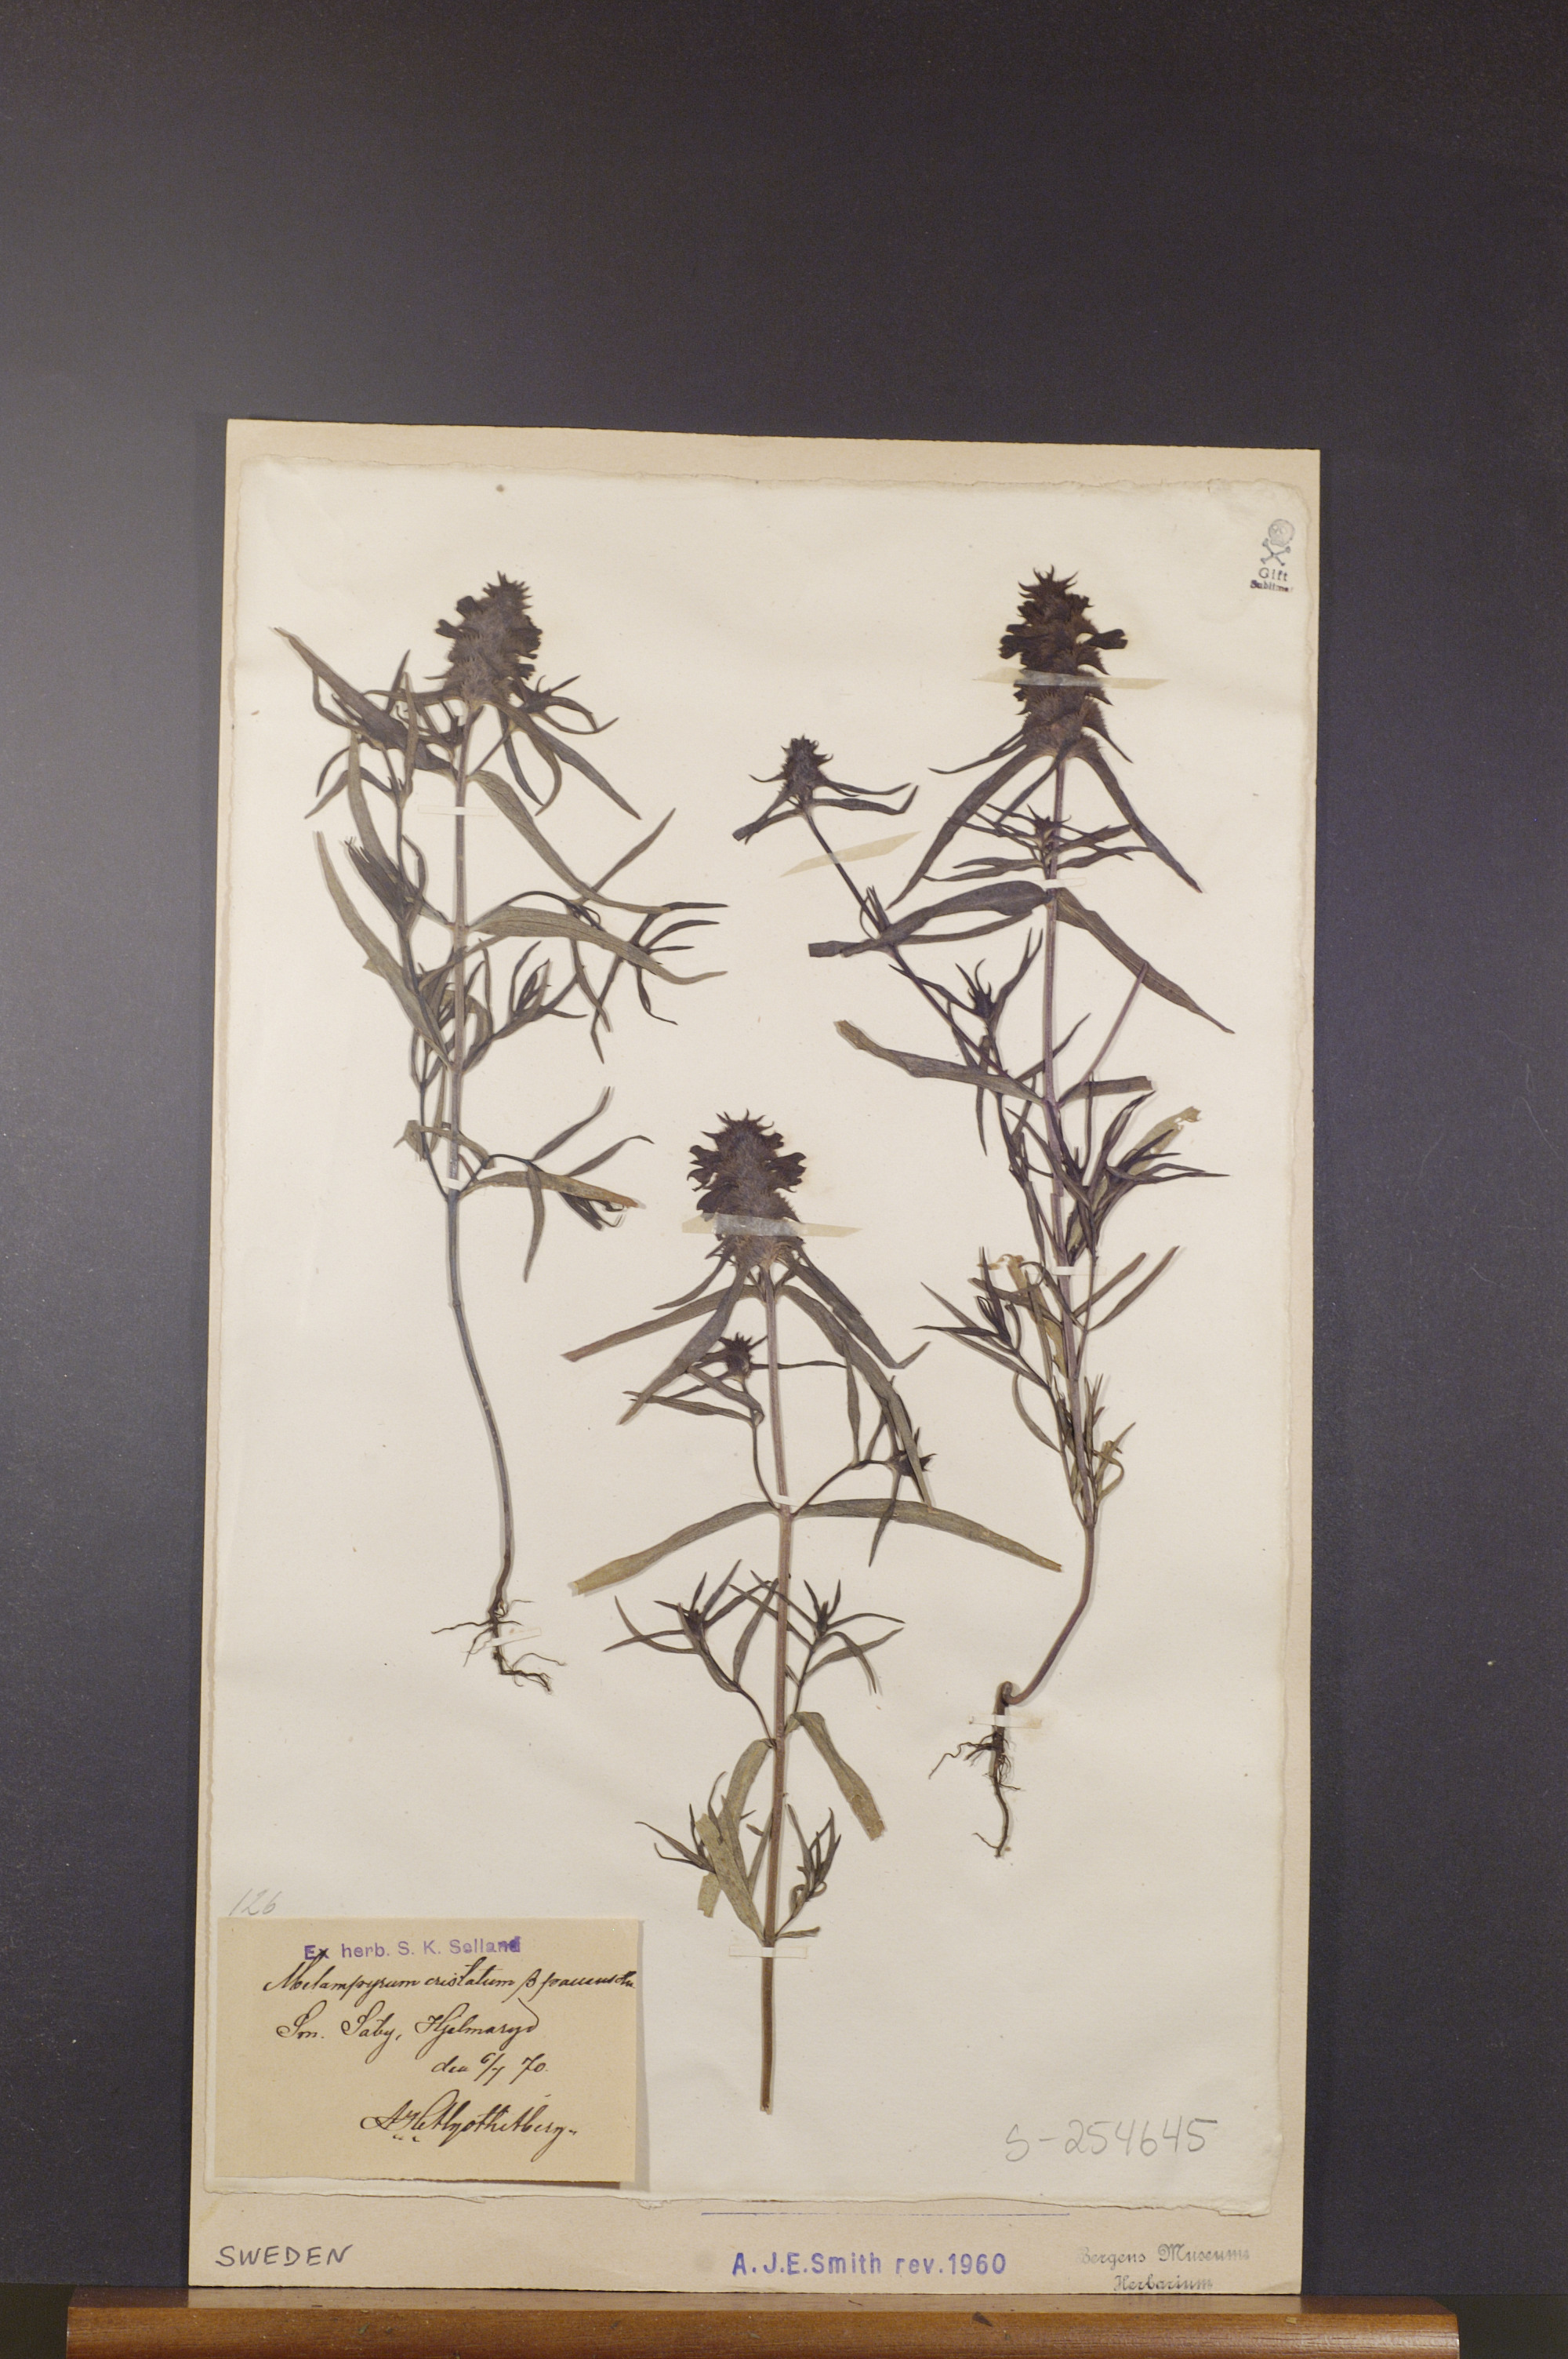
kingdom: Plantae
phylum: Tracheophyta
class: Magnoliopsida
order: Lamiales
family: Orobanchaceae
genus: Melampyrum
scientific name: Melampyrum cristatum
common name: Crested cow-wheat
